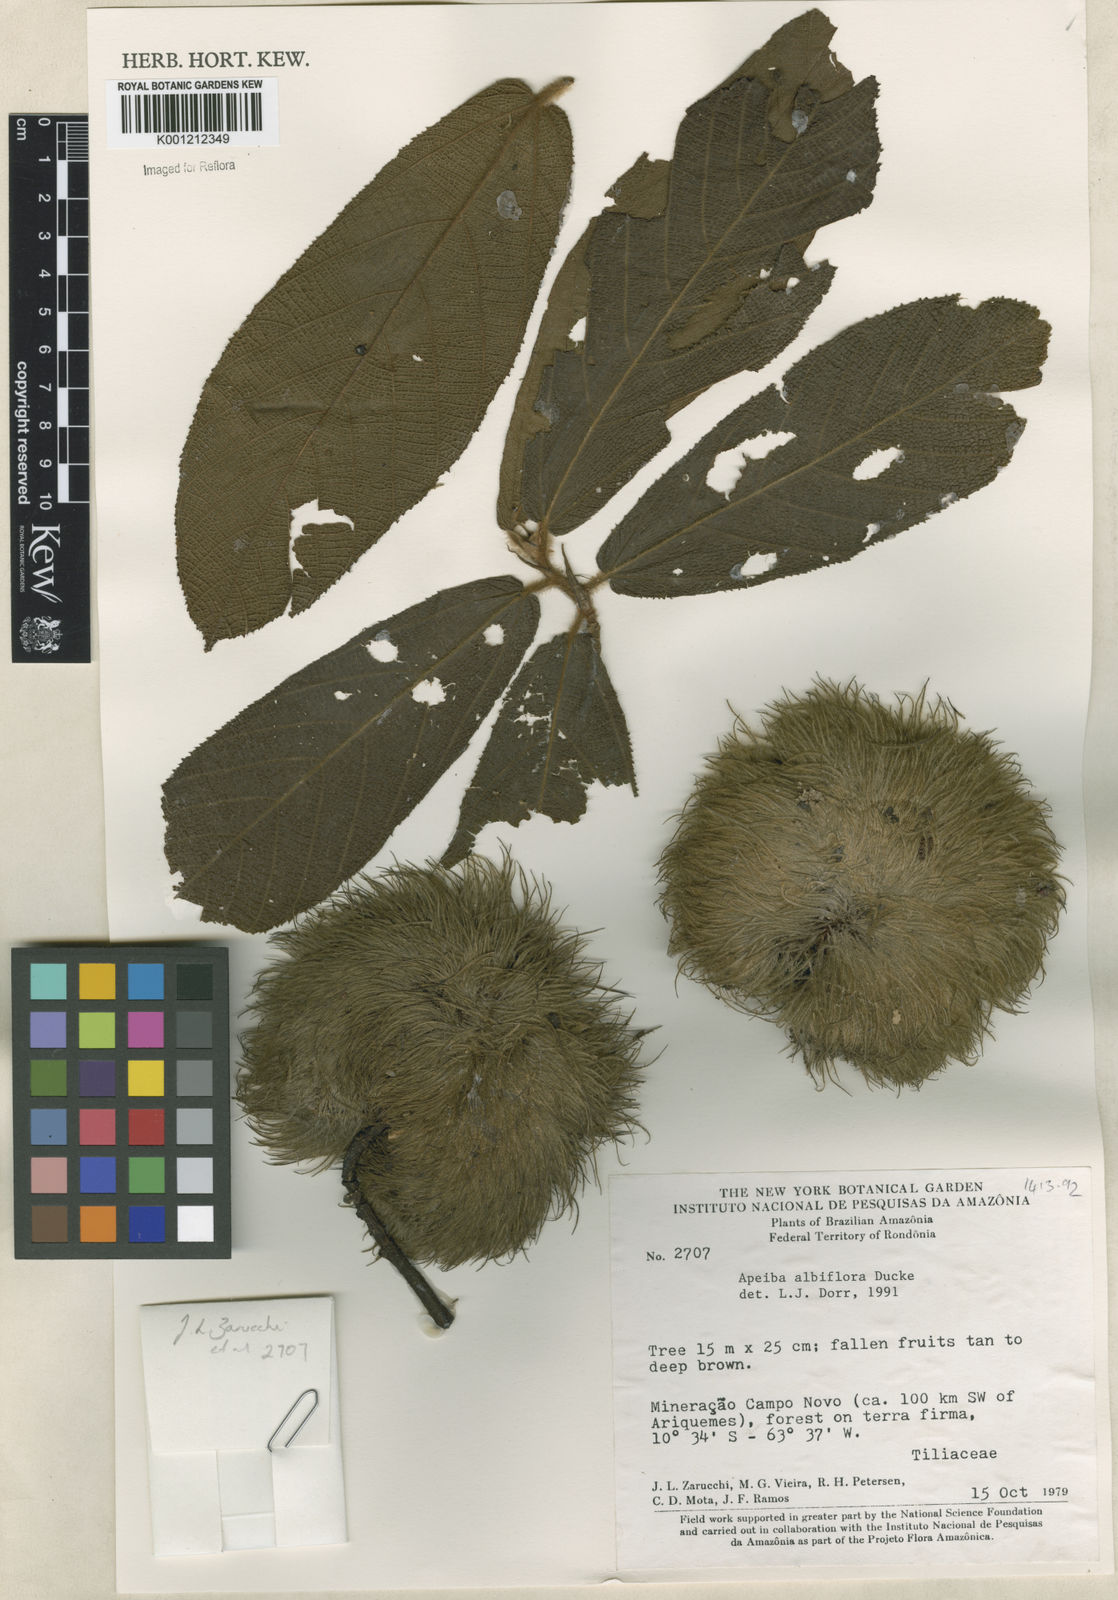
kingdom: Plantae
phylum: Tracheophyta
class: Magnoliopsida
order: Malvales
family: Malvaceae
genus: Apeiba
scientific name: Apeiba albiflora
